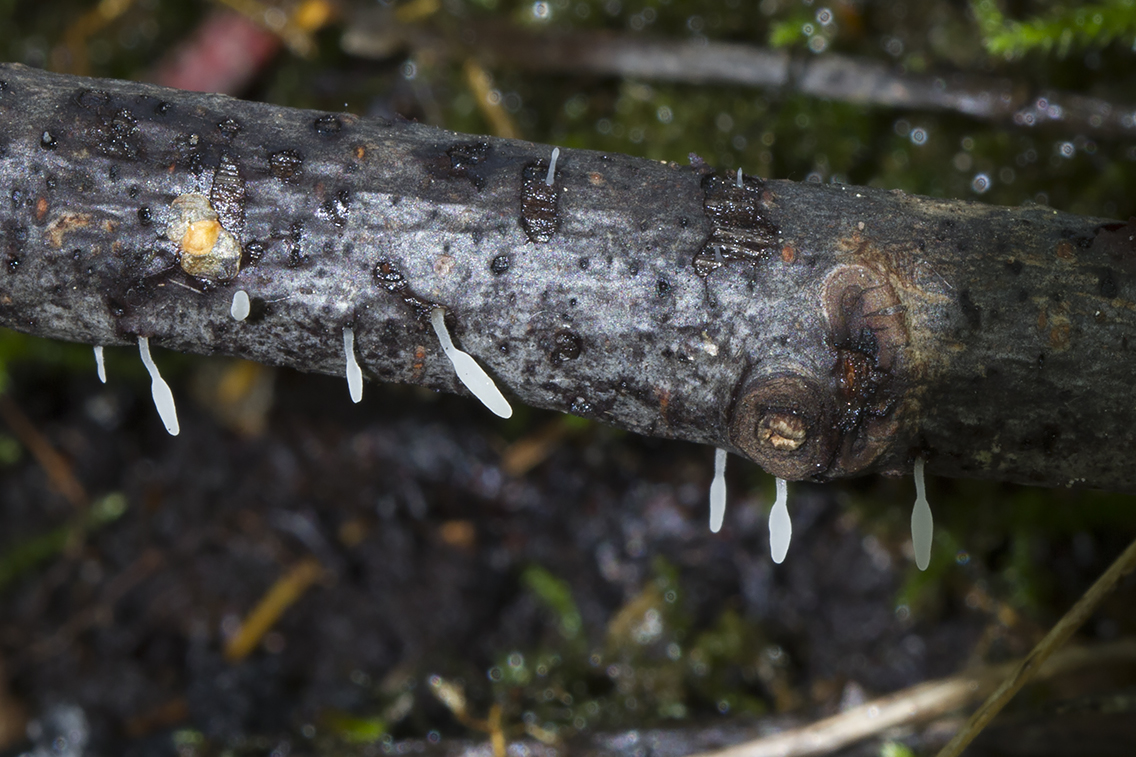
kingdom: Fungi
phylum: Basidiomycota
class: Agaricomycetes
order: Agaricales
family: Typhulaceae
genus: Typhula
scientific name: Typhula spathulata
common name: aske-trådkølle
